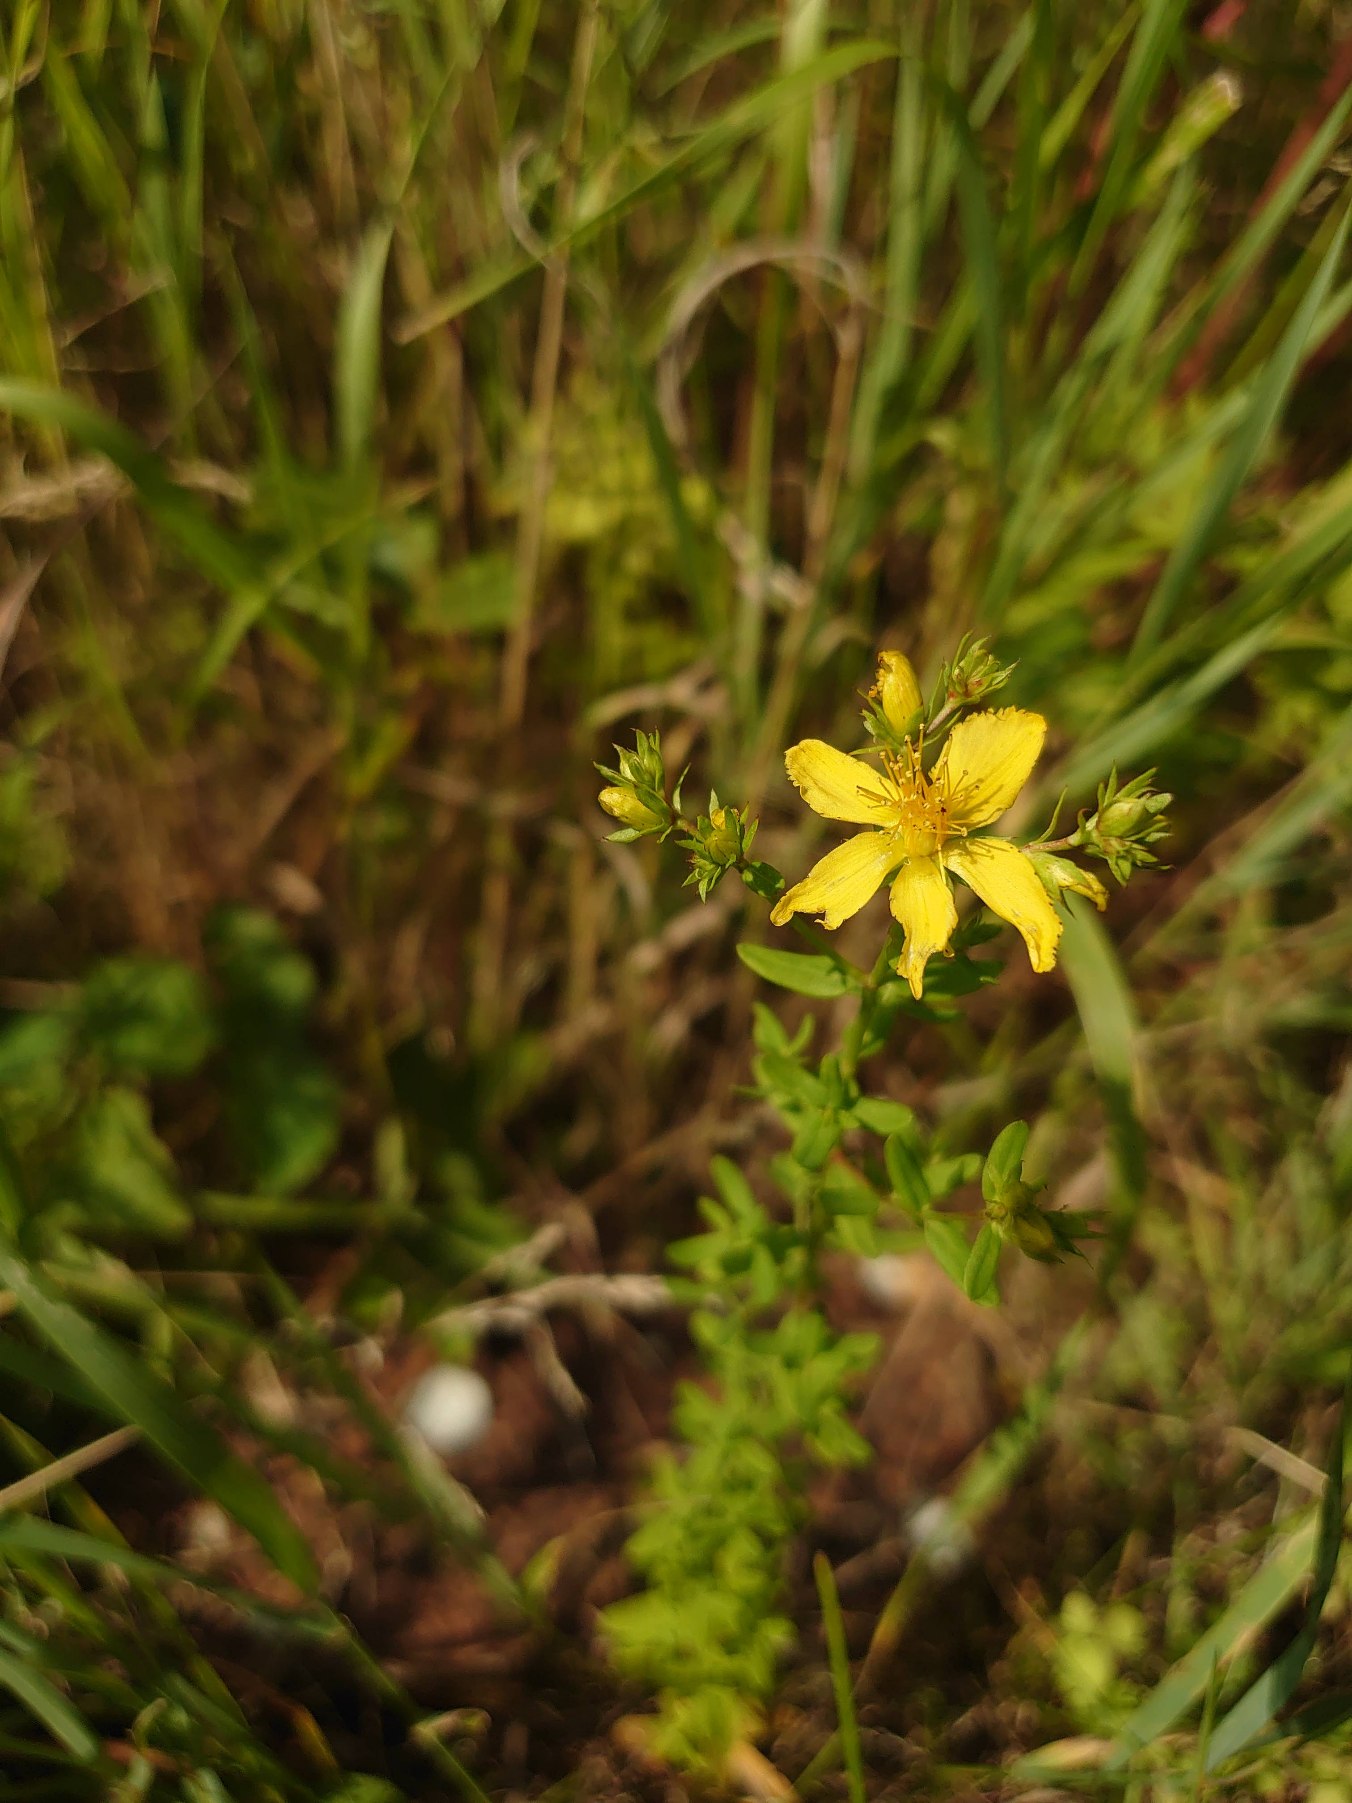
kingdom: Plantae
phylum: Tracheophyta
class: Magnoliopsida
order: Malpighiales
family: Hypericaceae
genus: Hypericum
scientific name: Hypericum perforatum
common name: Prikbladet perikon
